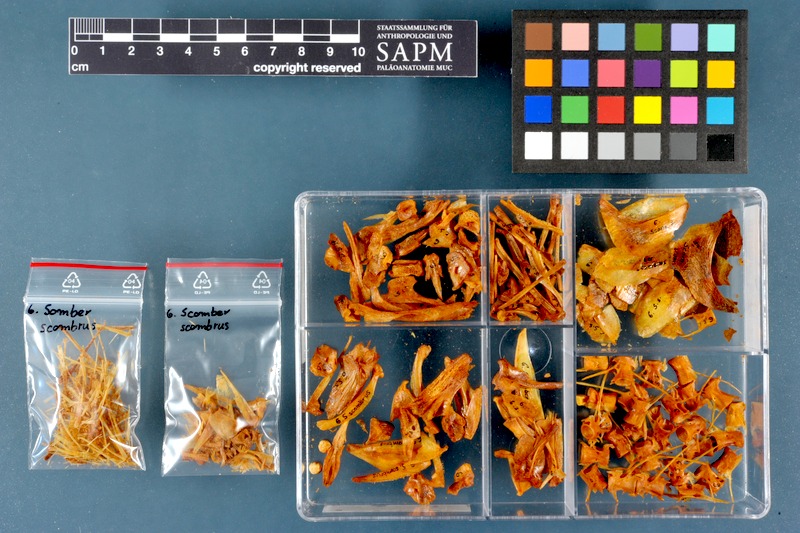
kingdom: Animalia
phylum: Chordata
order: Perciformes
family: Scombridae
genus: Scomber
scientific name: Scomber scombrus
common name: Mackerel
